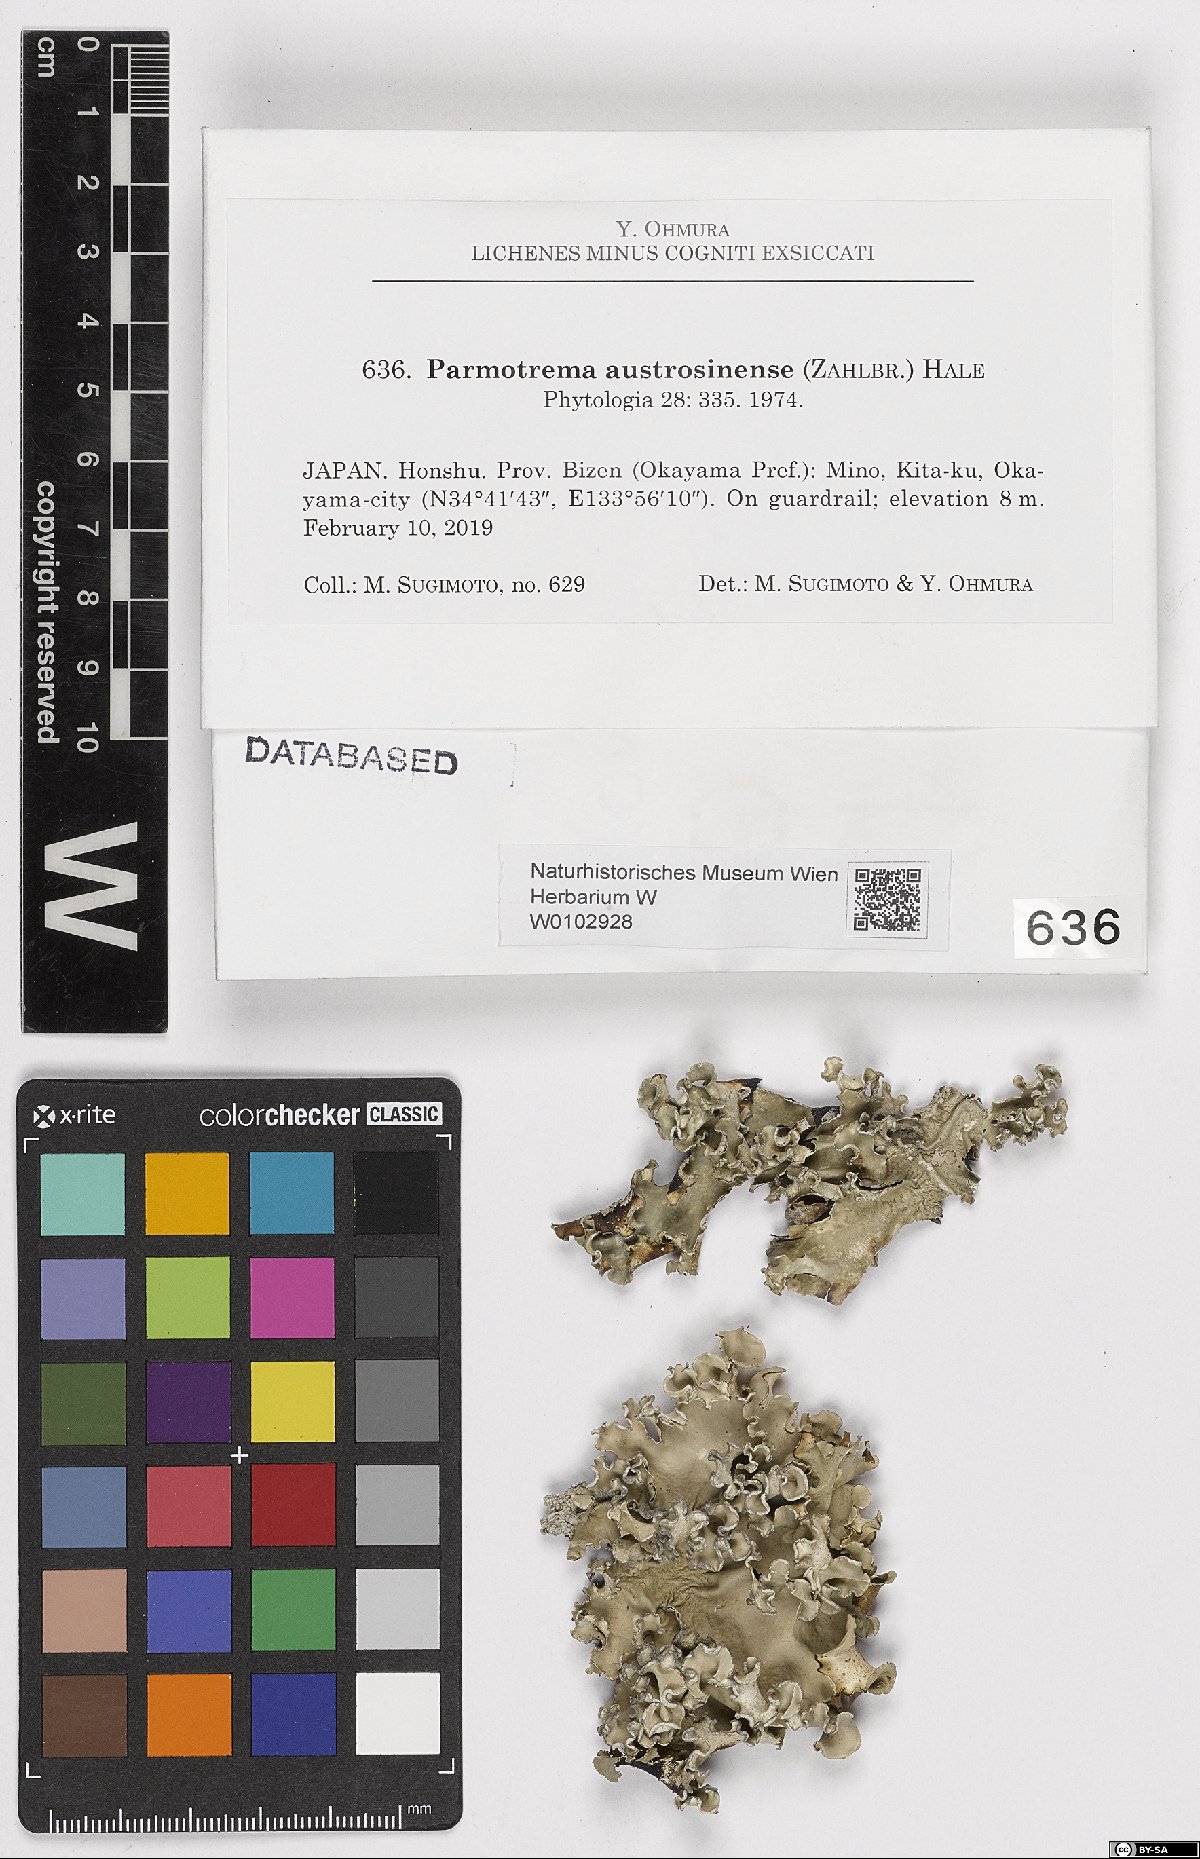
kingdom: Fungi
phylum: Ascomycota
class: Lecanoromycetes
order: Lecanorales
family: Parmeliaceae
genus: Parmotrema
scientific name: Parmotrema austrosinense
